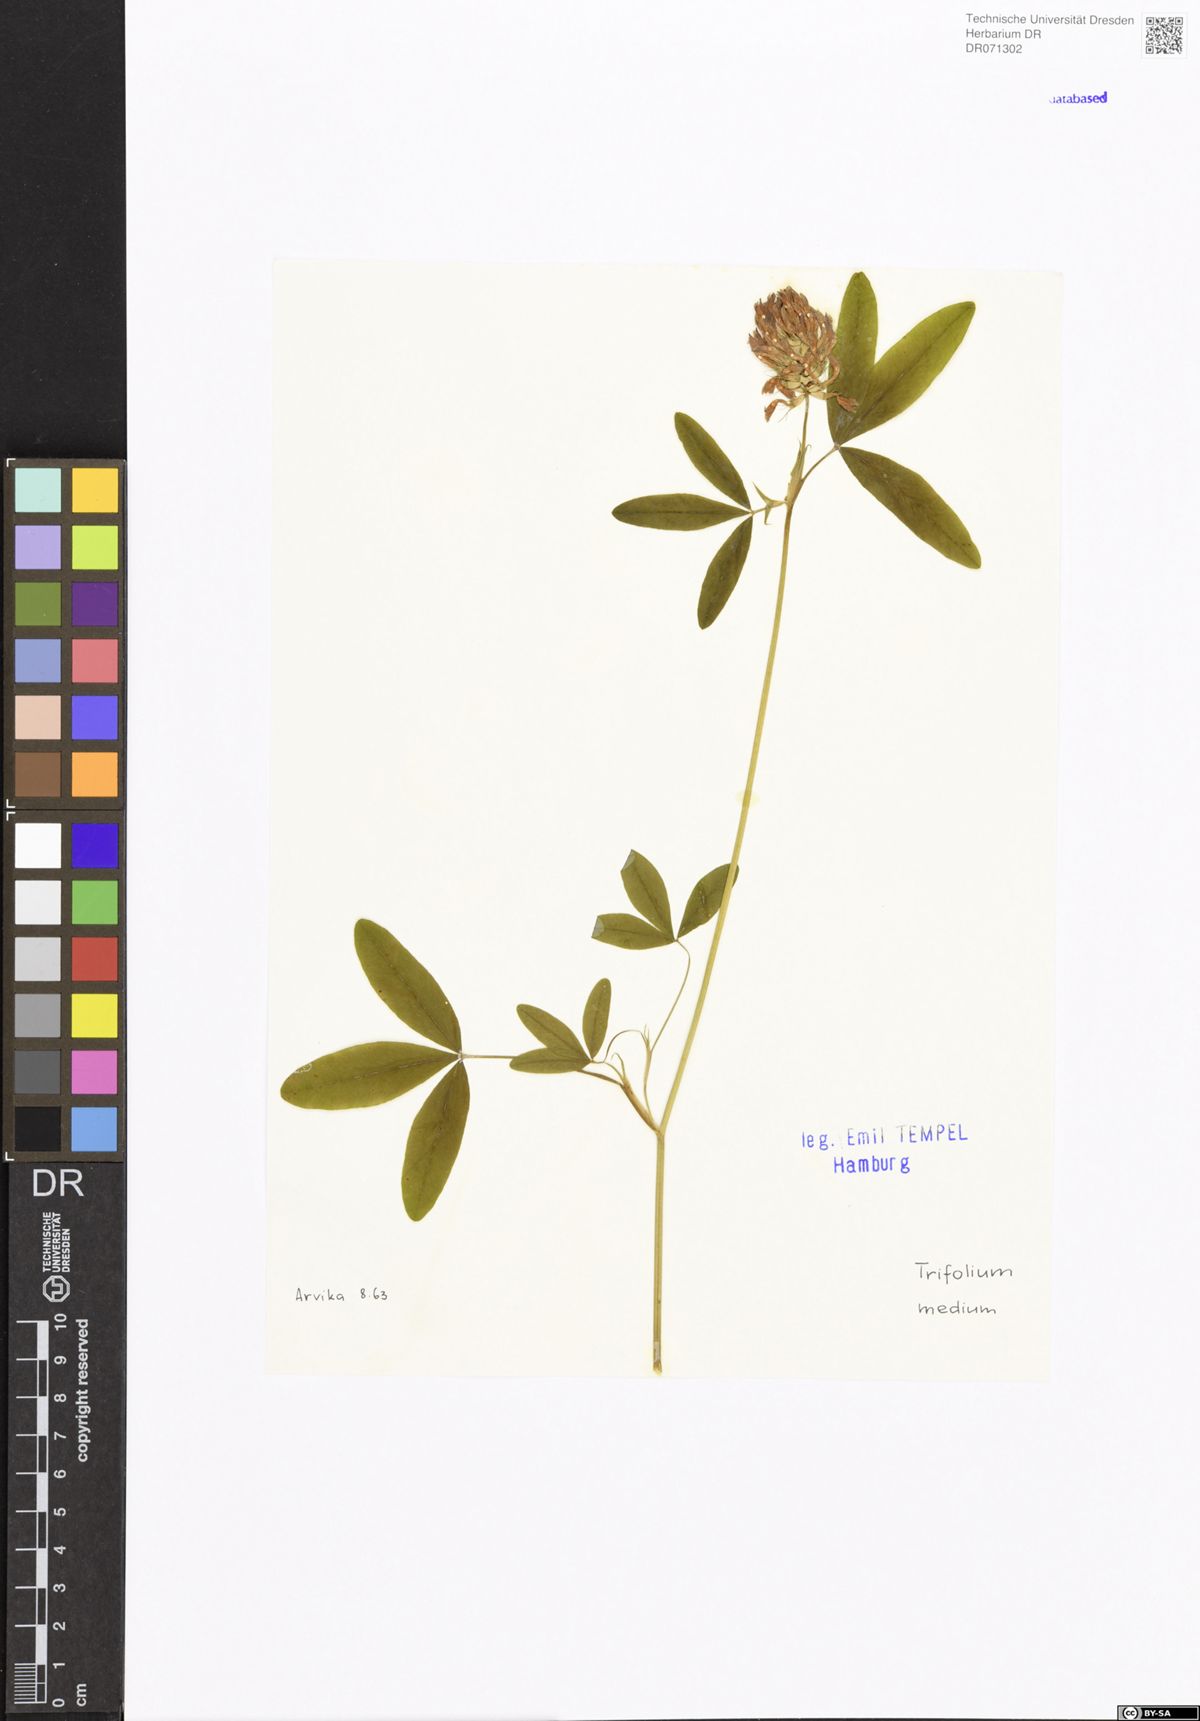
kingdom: Plantae
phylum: Tracheophyta
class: Magnoliopsida
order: Fabales
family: Fabaceae
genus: Trifolium
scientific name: Trifolium medium
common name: Zigzag clover
